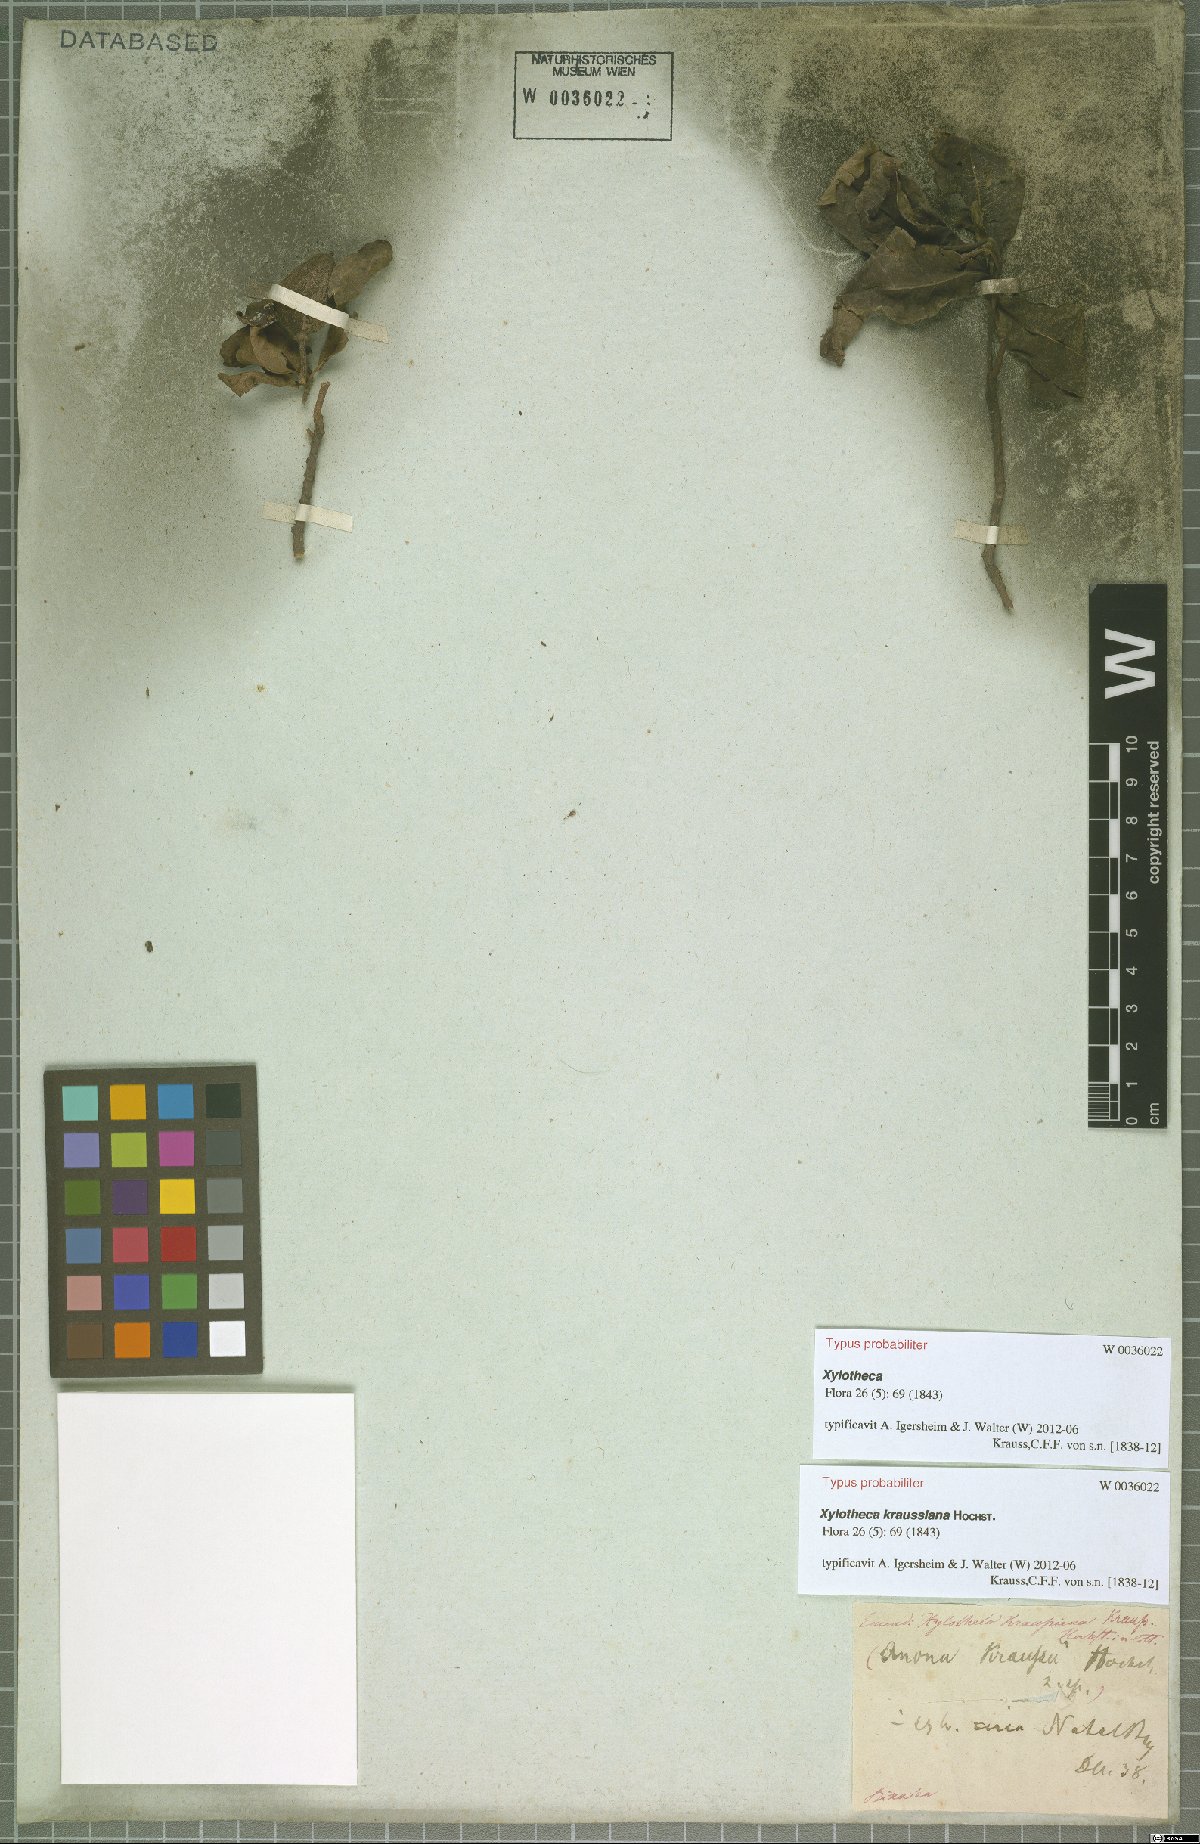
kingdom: Plantae
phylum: Tracheophyta
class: Magnoliopsida
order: Malpighiales
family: Achariaceae
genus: Xylotheca
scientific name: Xylotheca kraussiana
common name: African dog rose
